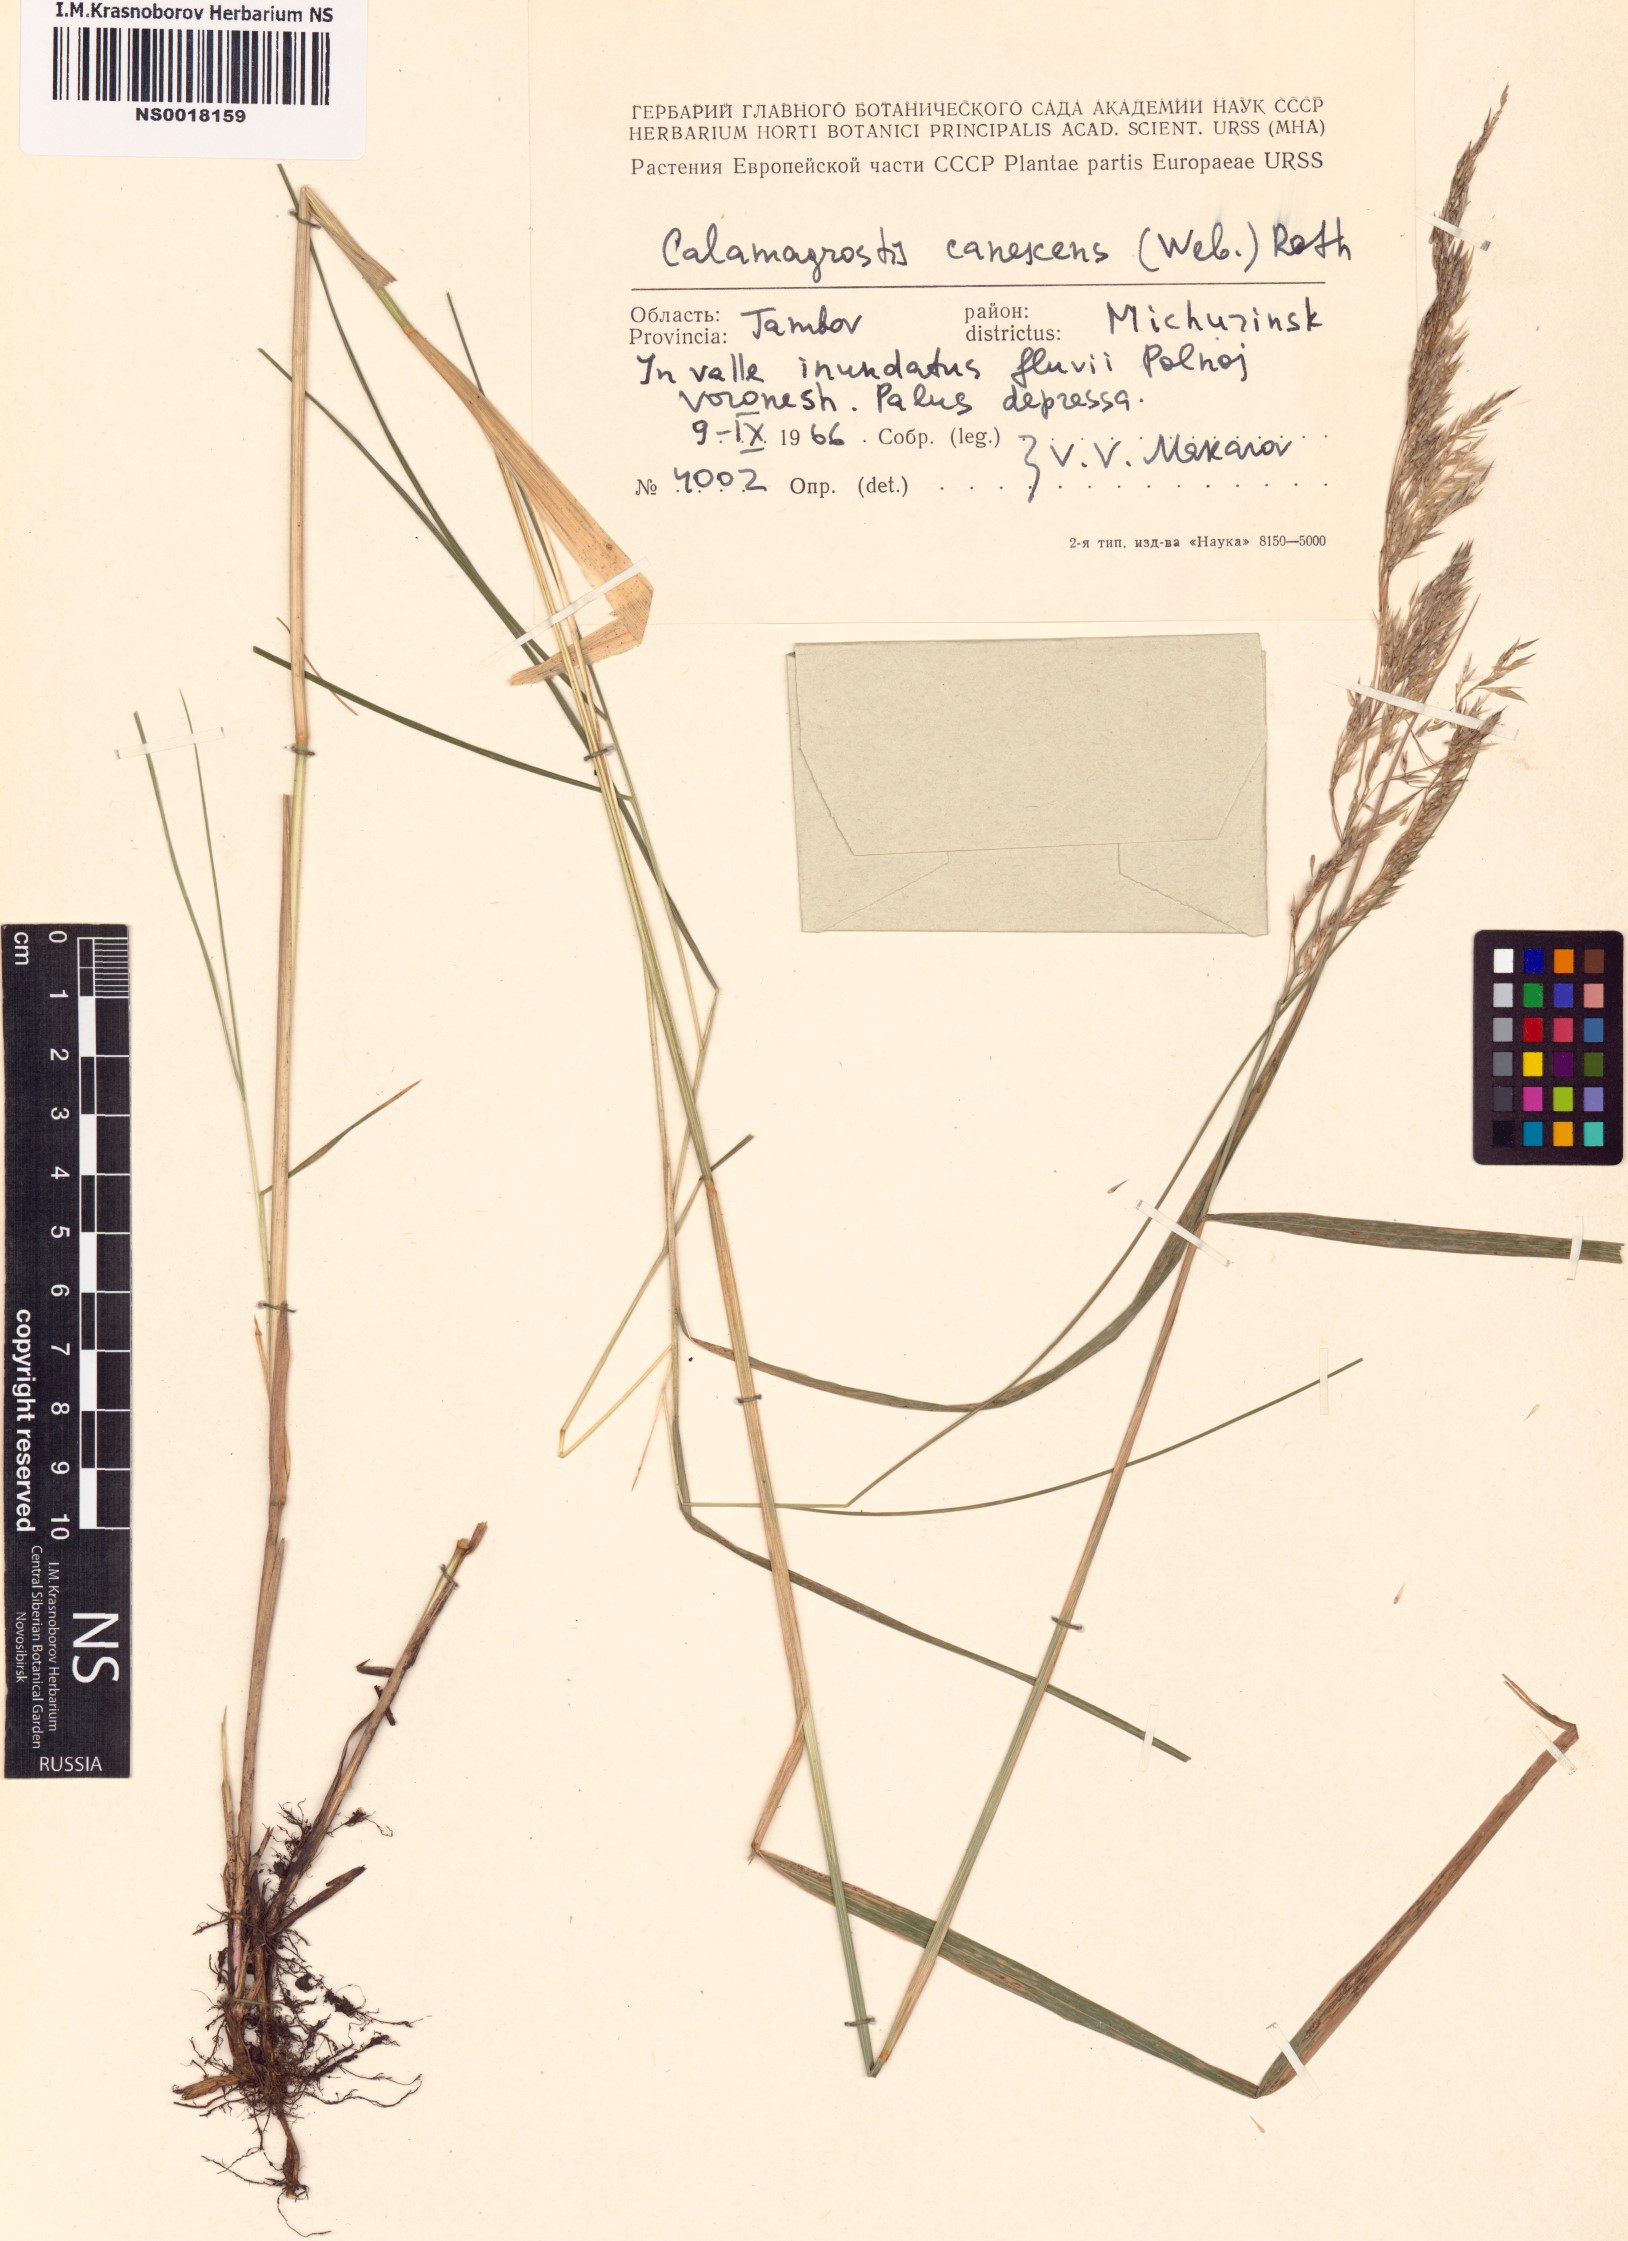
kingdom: Plantae
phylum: Tracheophyta
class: Liliopsida
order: Poales
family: Poaceae
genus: Calamagrostis
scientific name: Calamagrostis canescens
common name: Purple small-reed
